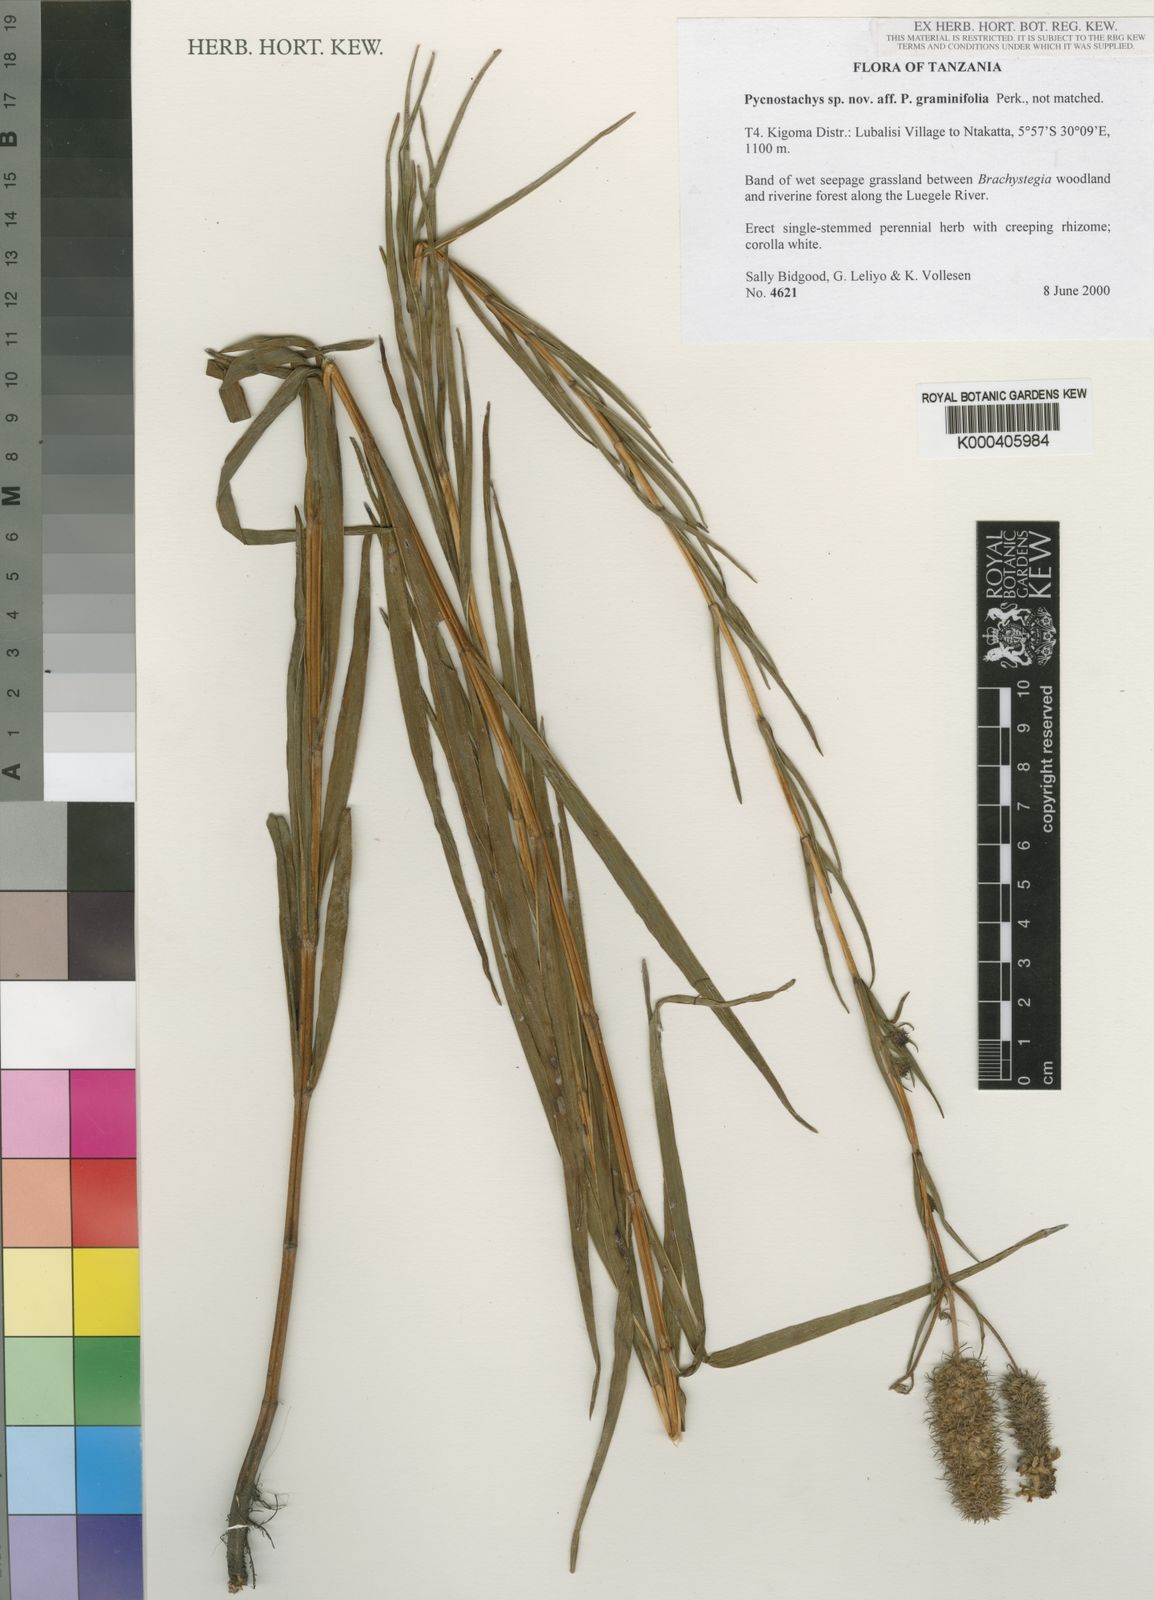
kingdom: Plantae
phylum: Tracheophyta
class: Magnoliopsida
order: Lamiales
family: Lamiaceae
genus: Coleus
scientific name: Coleus lancifolius
